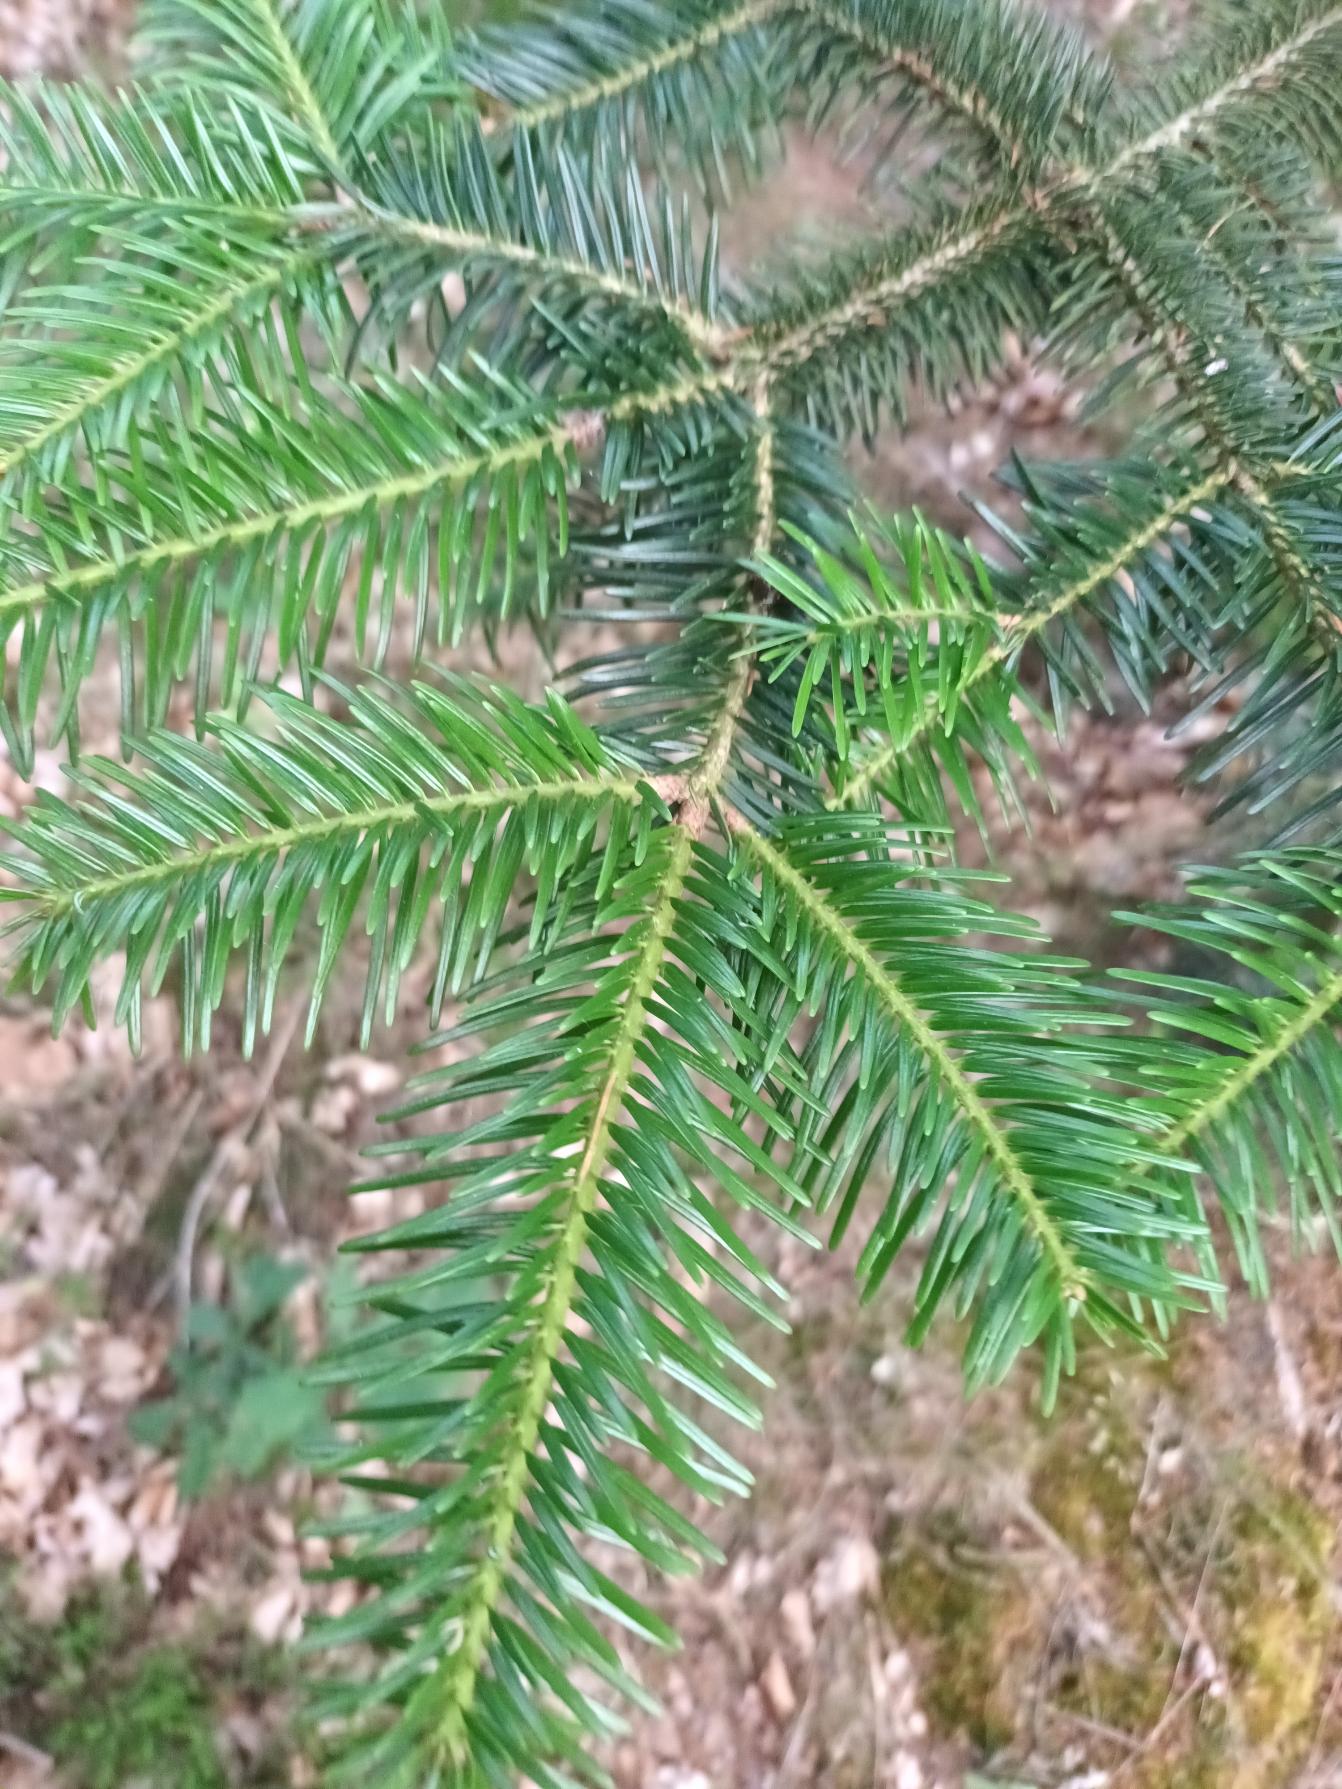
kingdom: Plantae
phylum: Tracheophyta
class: Pinopsida
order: Pinales
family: Pinaceae
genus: Abies
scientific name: Abies nordmanniana
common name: Nordmannsgran
